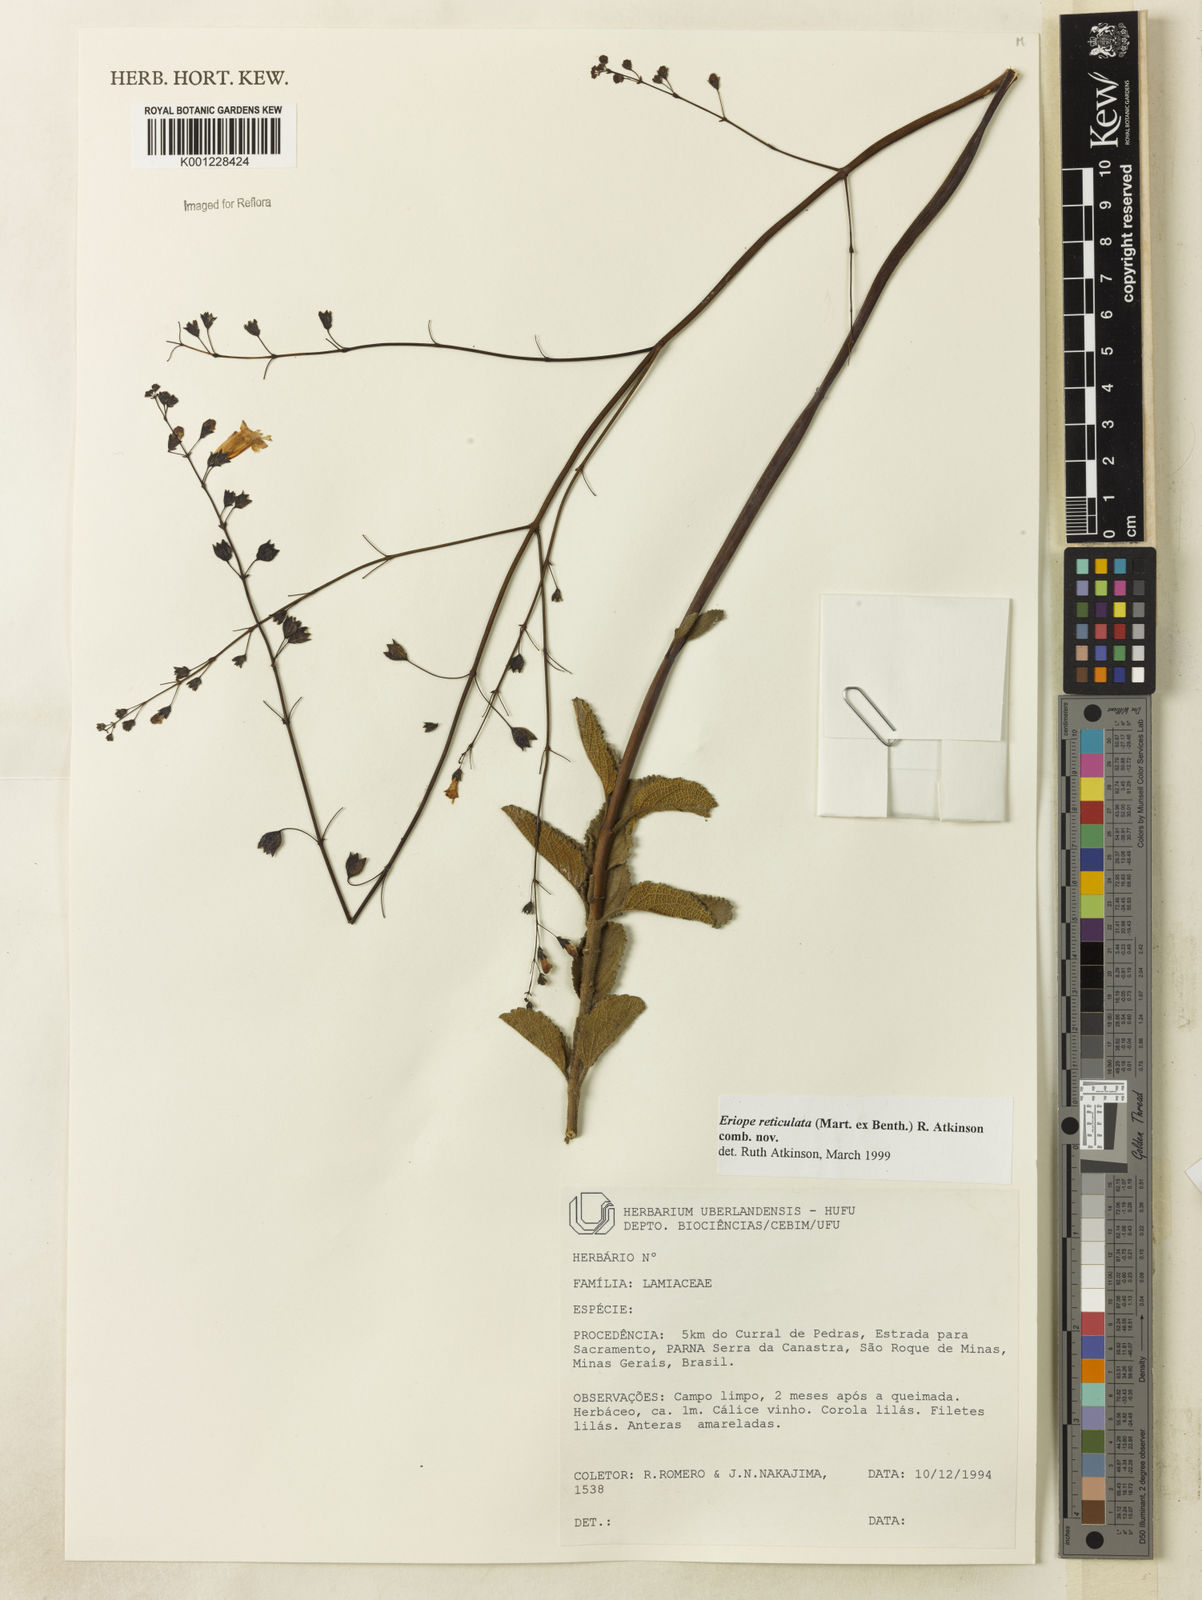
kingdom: Plantae
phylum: Tracheophyta
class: Magnoliopsida
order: Lamiales
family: Lamiaceae
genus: Hypenia
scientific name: Hypenia reticulata
